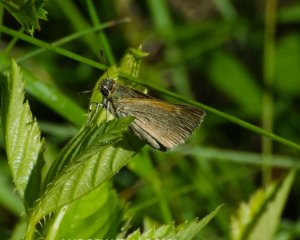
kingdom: Animalia
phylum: Arthropoda
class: Insecta
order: Lepidoptera
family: Hesperiidae
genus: Polites
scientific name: Polites themistocles
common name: Tawny-edged Skipper
